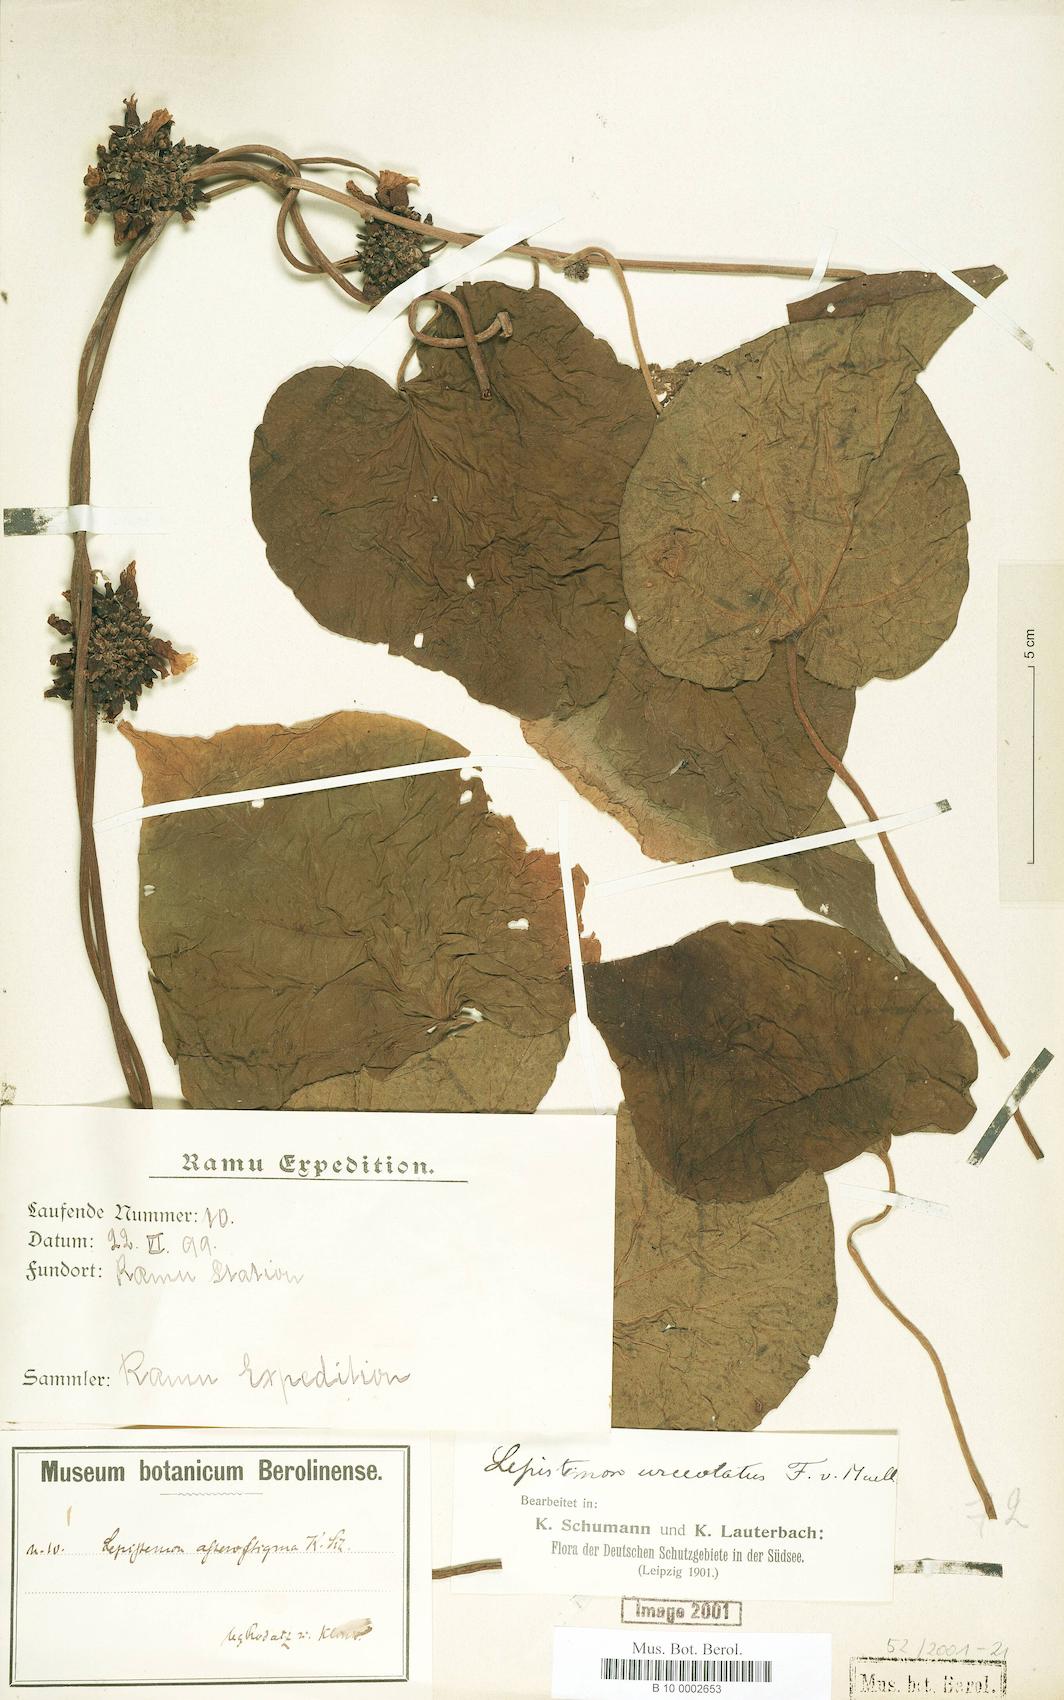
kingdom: Plantae
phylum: Tracheophyta
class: Magnoliopsida
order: Solanales
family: Convolvulaceae
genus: Lepistemon
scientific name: Lepistemon urceolatus
